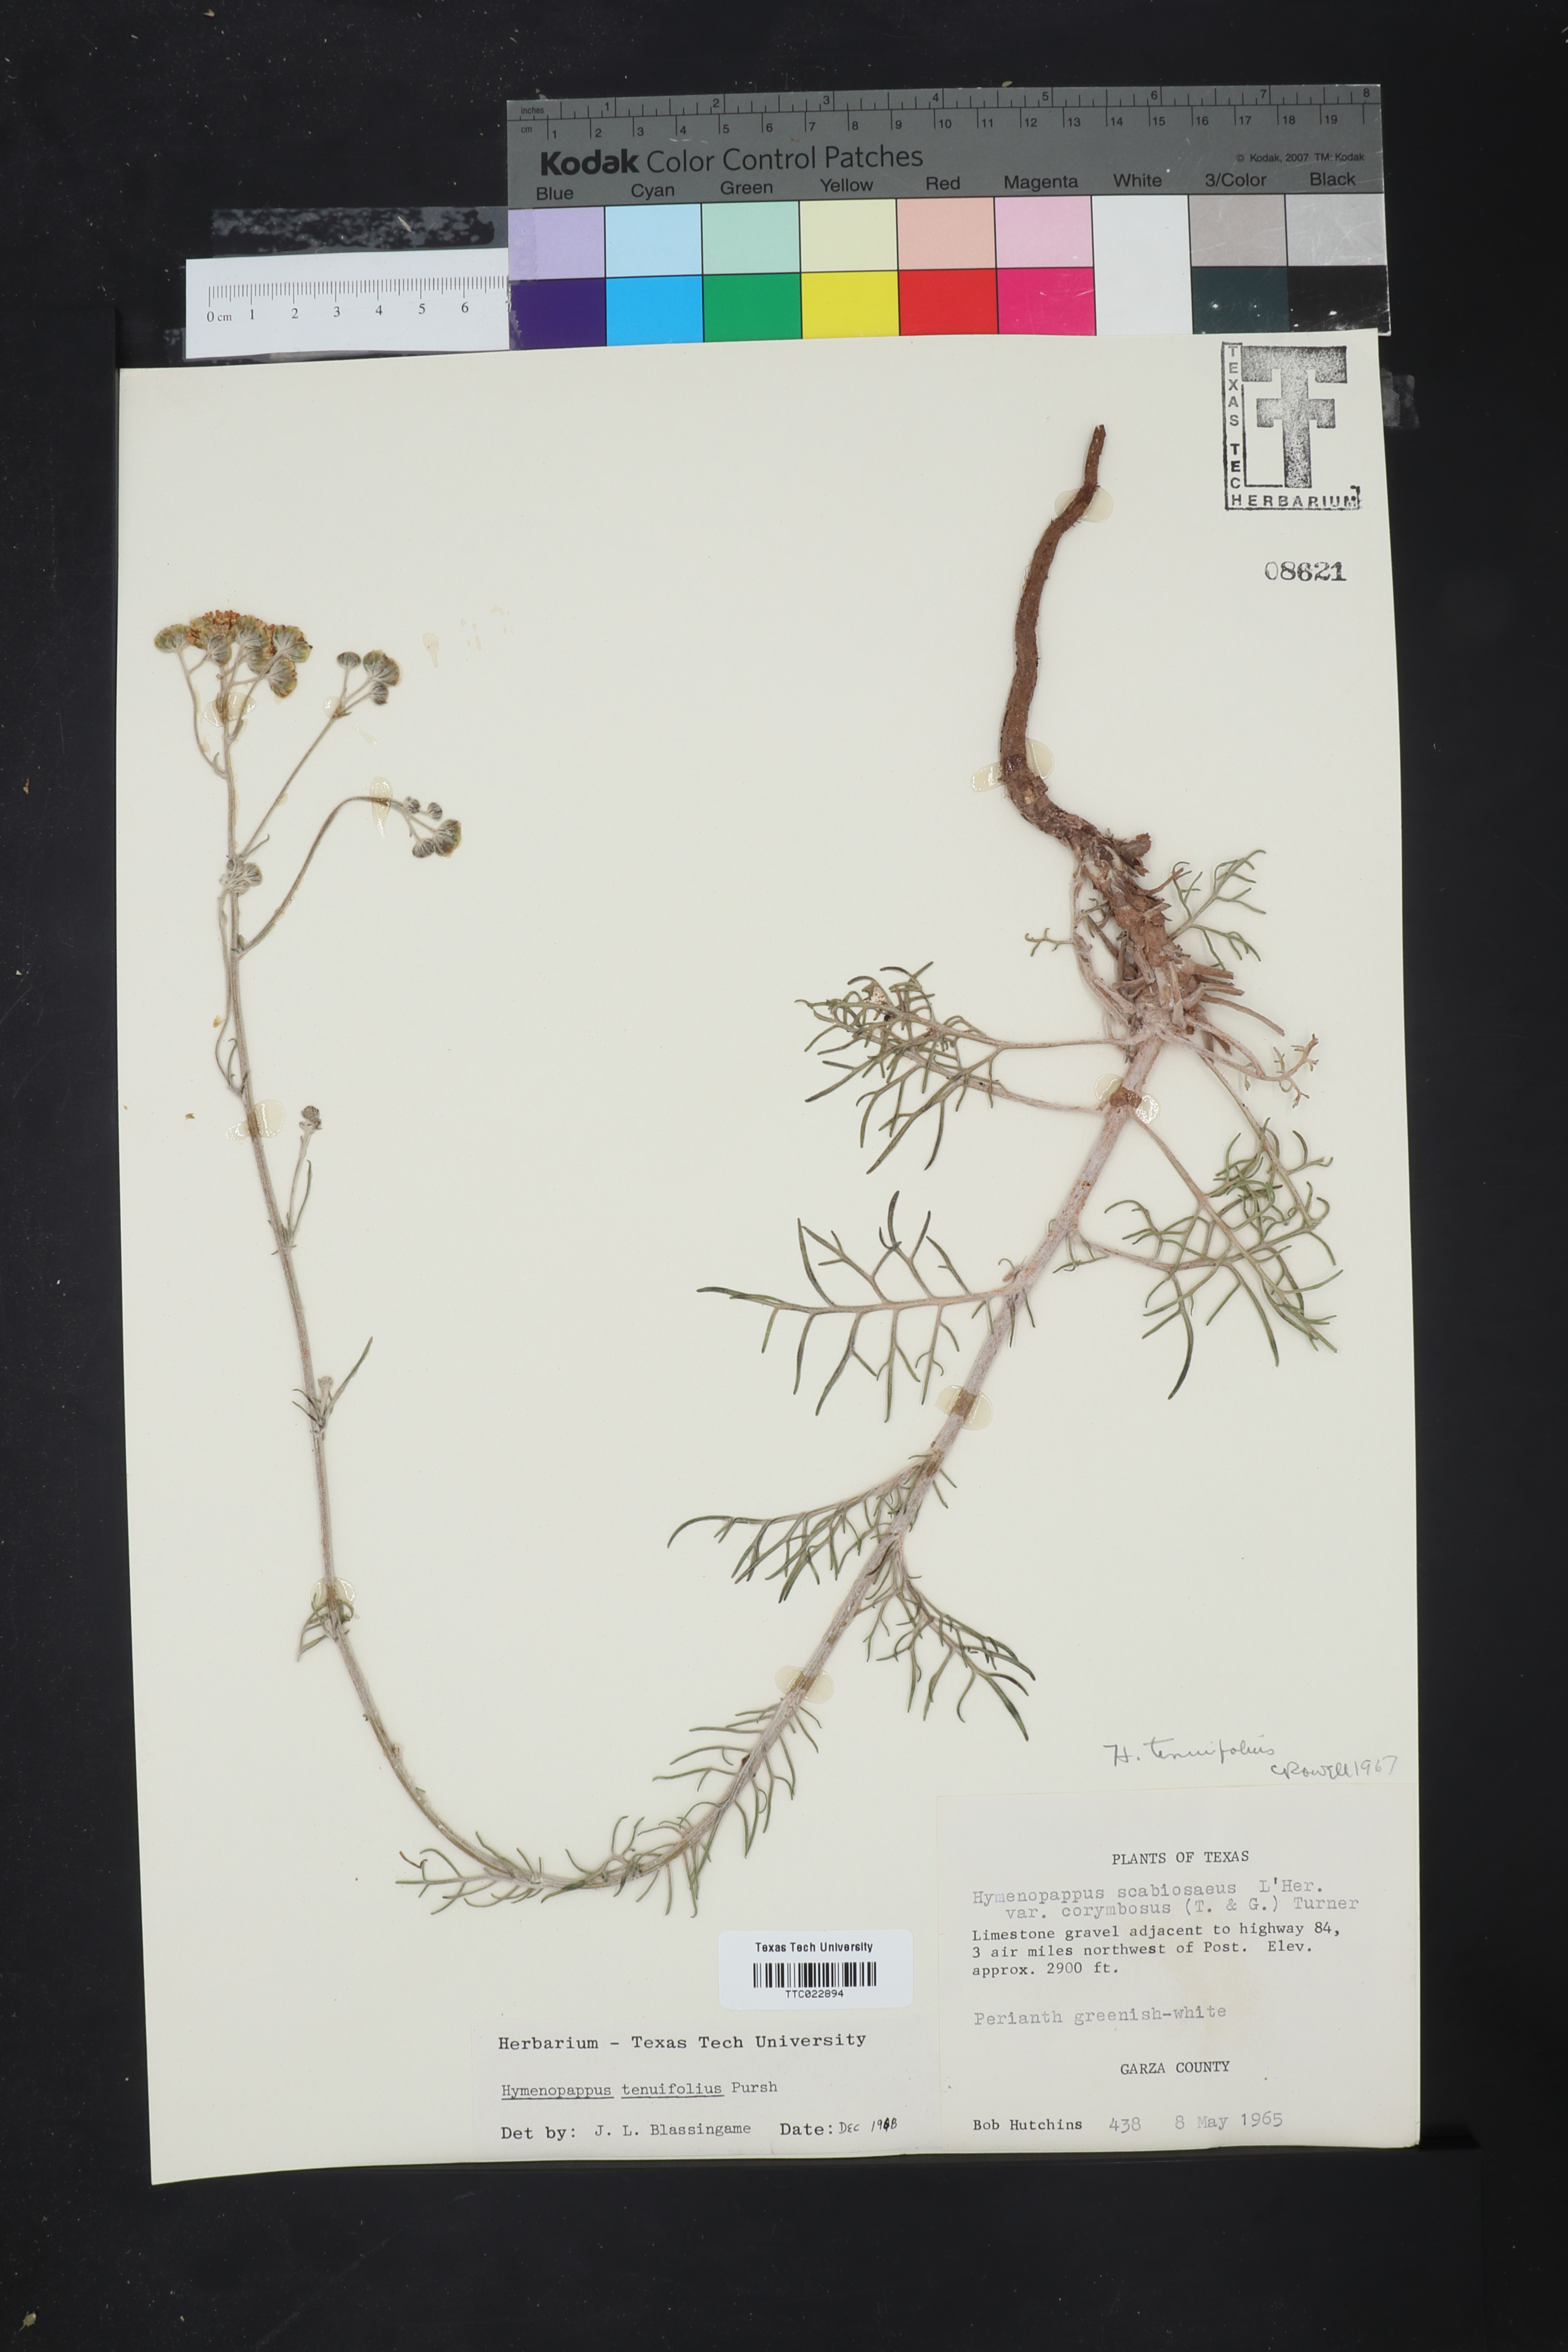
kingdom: Plantae
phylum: Tracheophyta
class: Magnoliopsida
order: Asterales
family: Asteraceae
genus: Hymenopappus
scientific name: Hymenopappus tenuifolius
